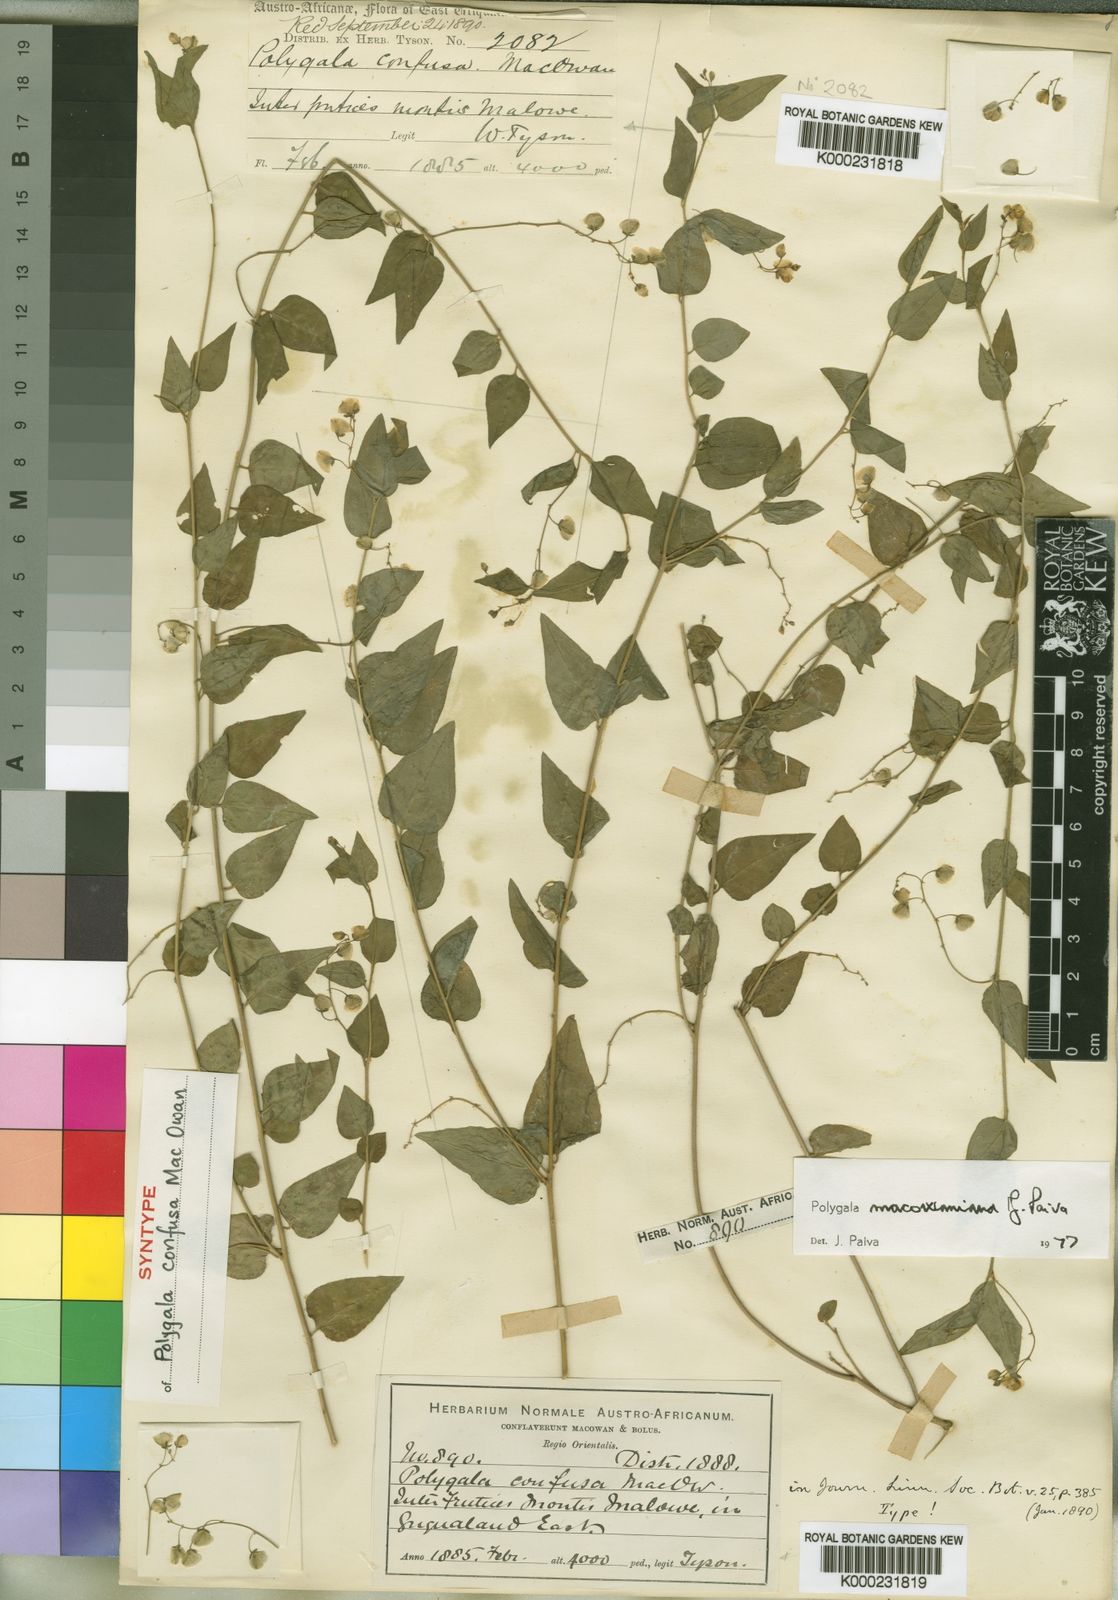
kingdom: Plantae
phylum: Tracheophyta
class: Magnoliopsida
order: Fabales
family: Polygalaceae
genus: Polygala
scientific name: Polygala macowaniana
